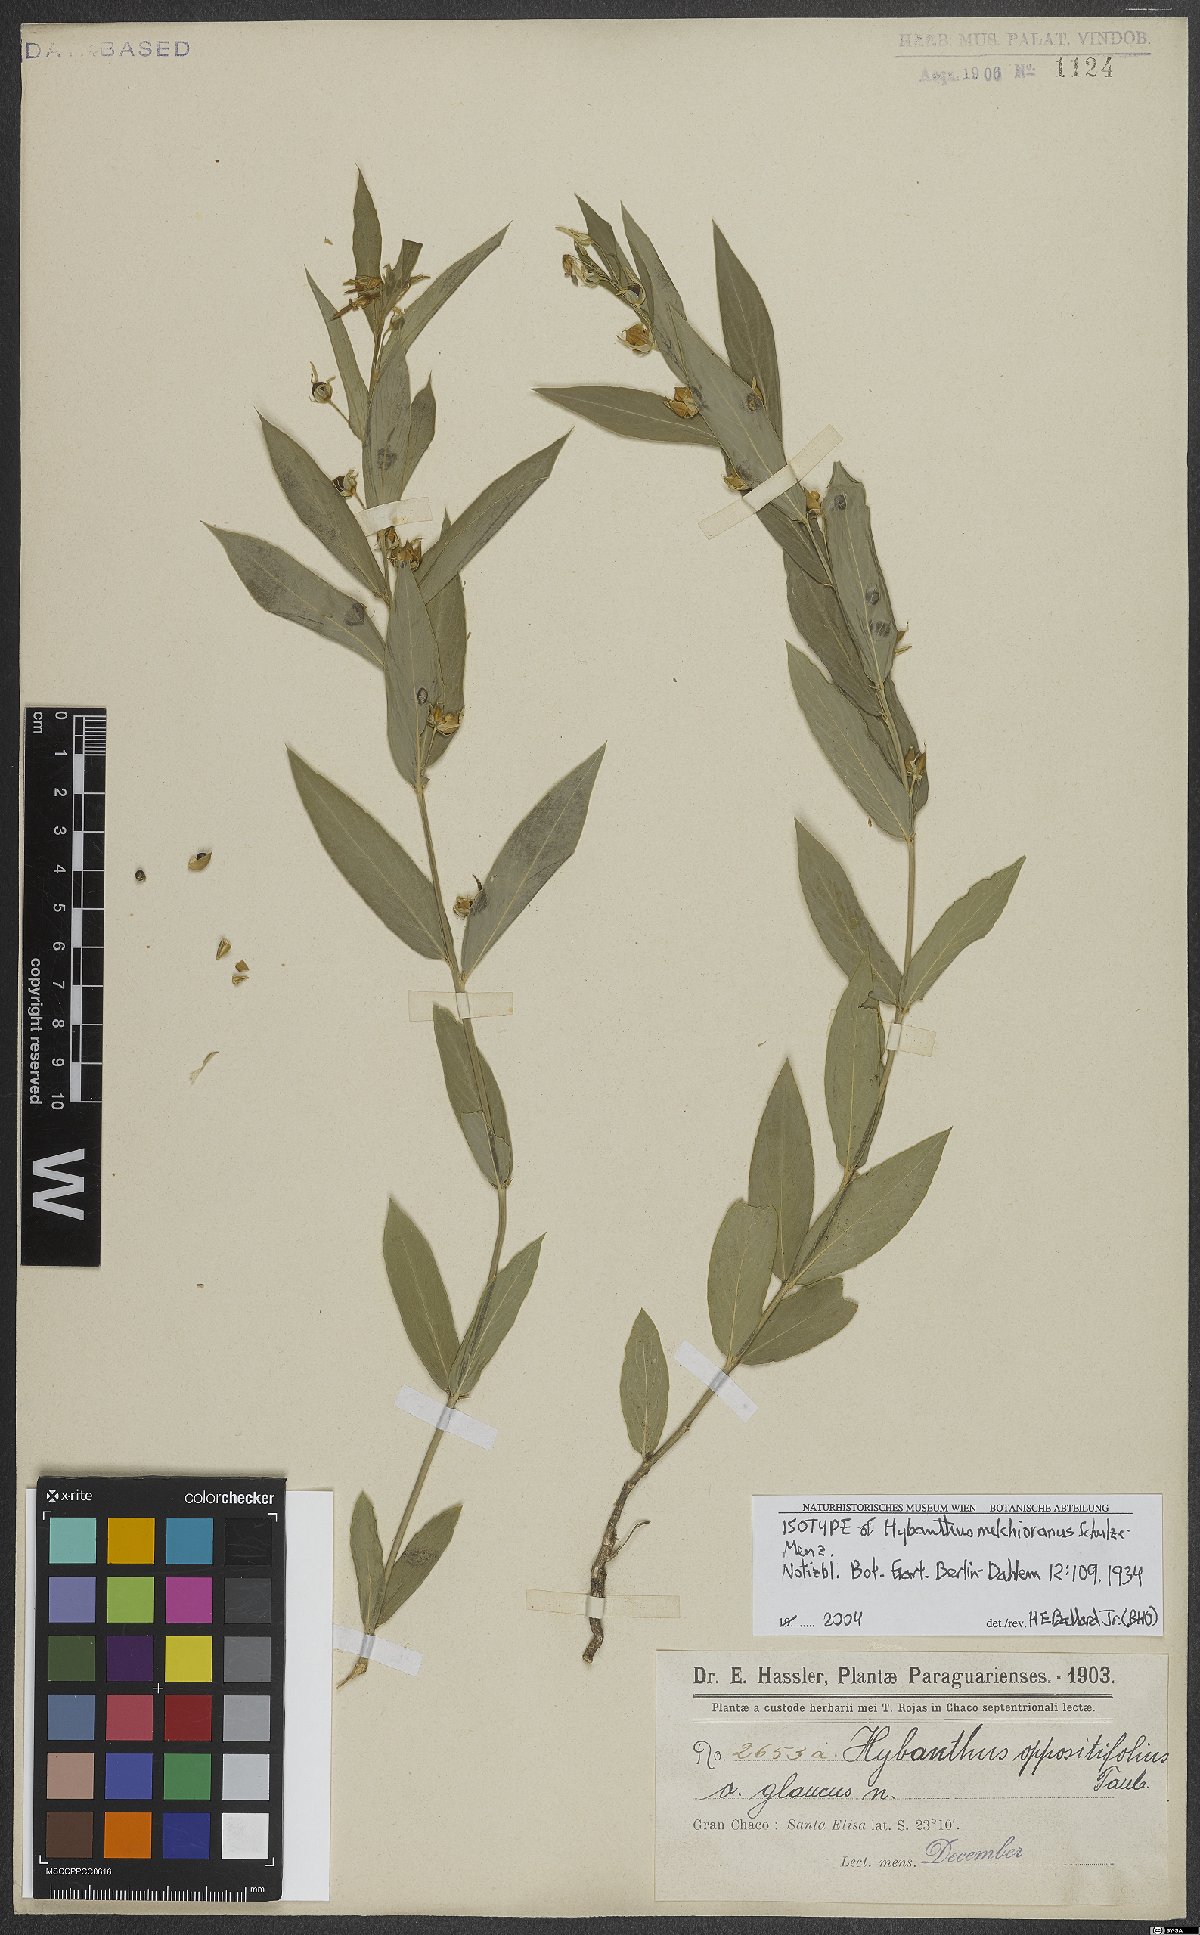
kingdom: Plantae
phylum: Tracheophyta
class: Magnoliopsida
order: Malpighiales
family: Violaceae
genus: Hybanthus
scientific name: Hybanthus melchiorianus
